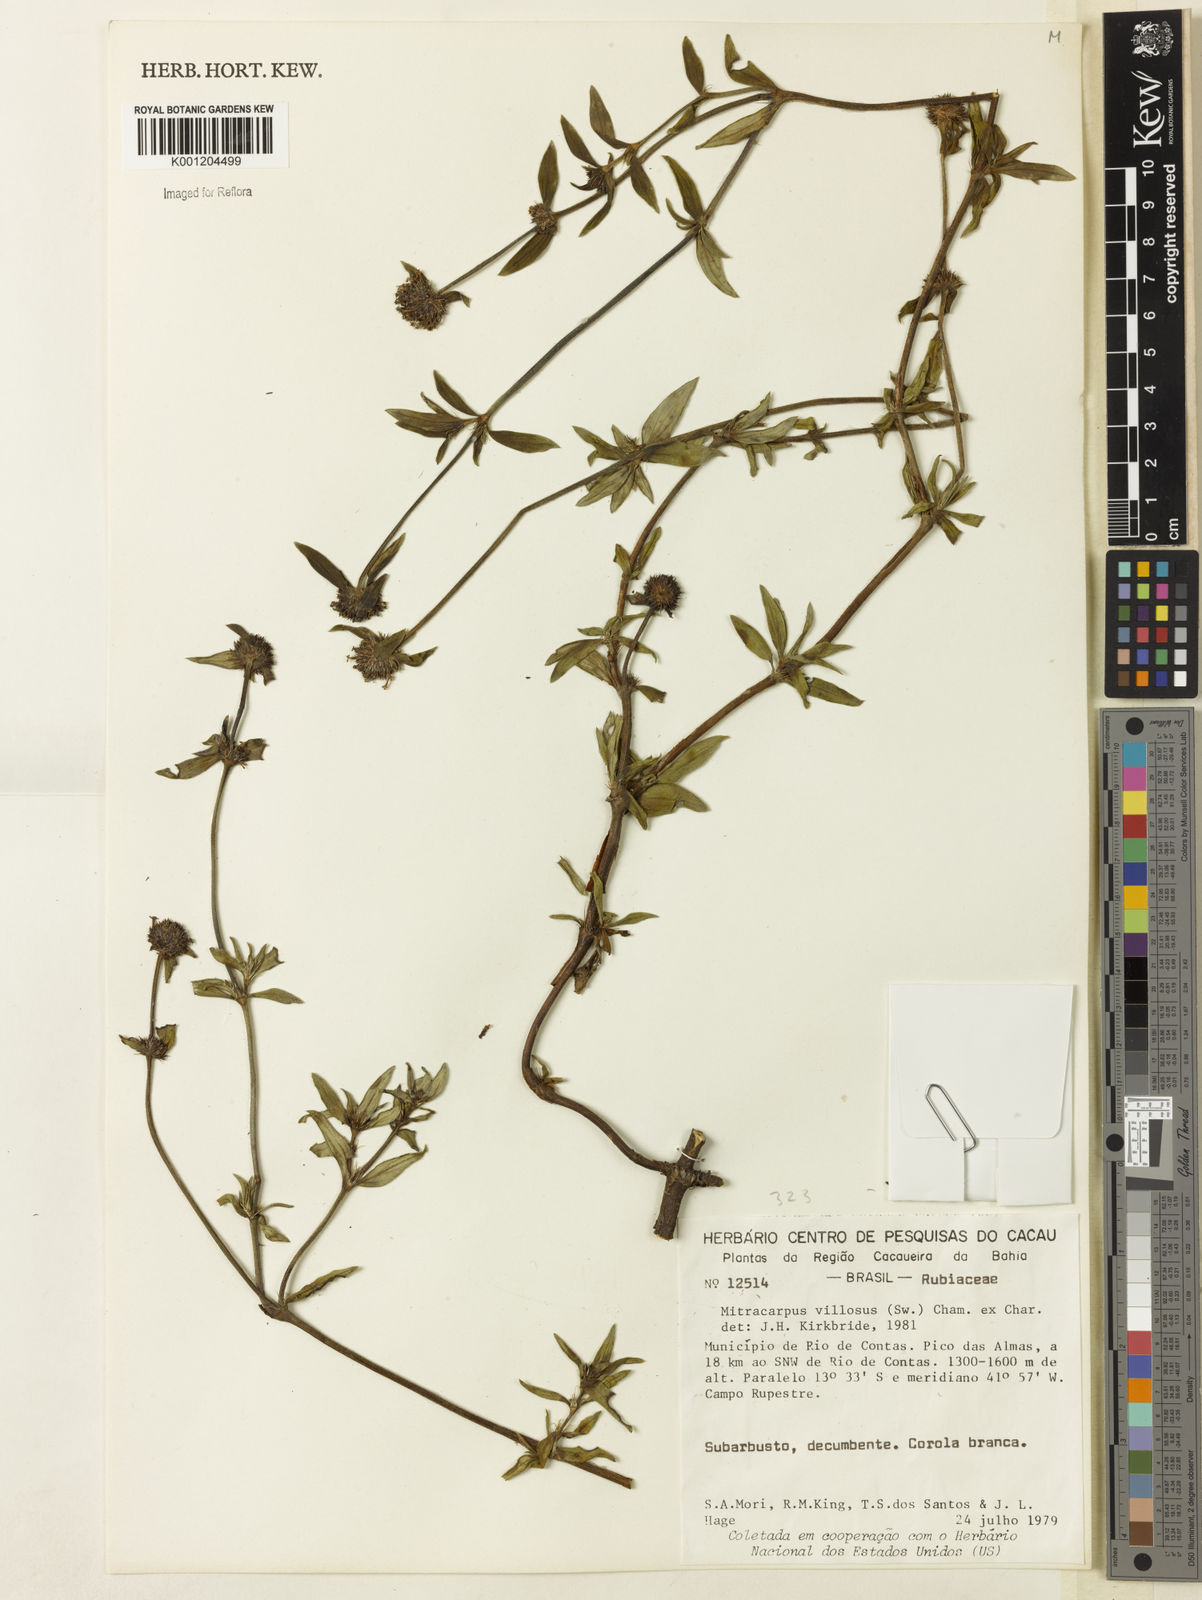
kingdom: Plantae
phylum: Tracheophyta
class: Magnoliopsida
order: Gentianales
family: Rubiaceae
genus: Mitracarpus
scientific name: Mitracarpus hirtus
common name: Tropical girdlepod
